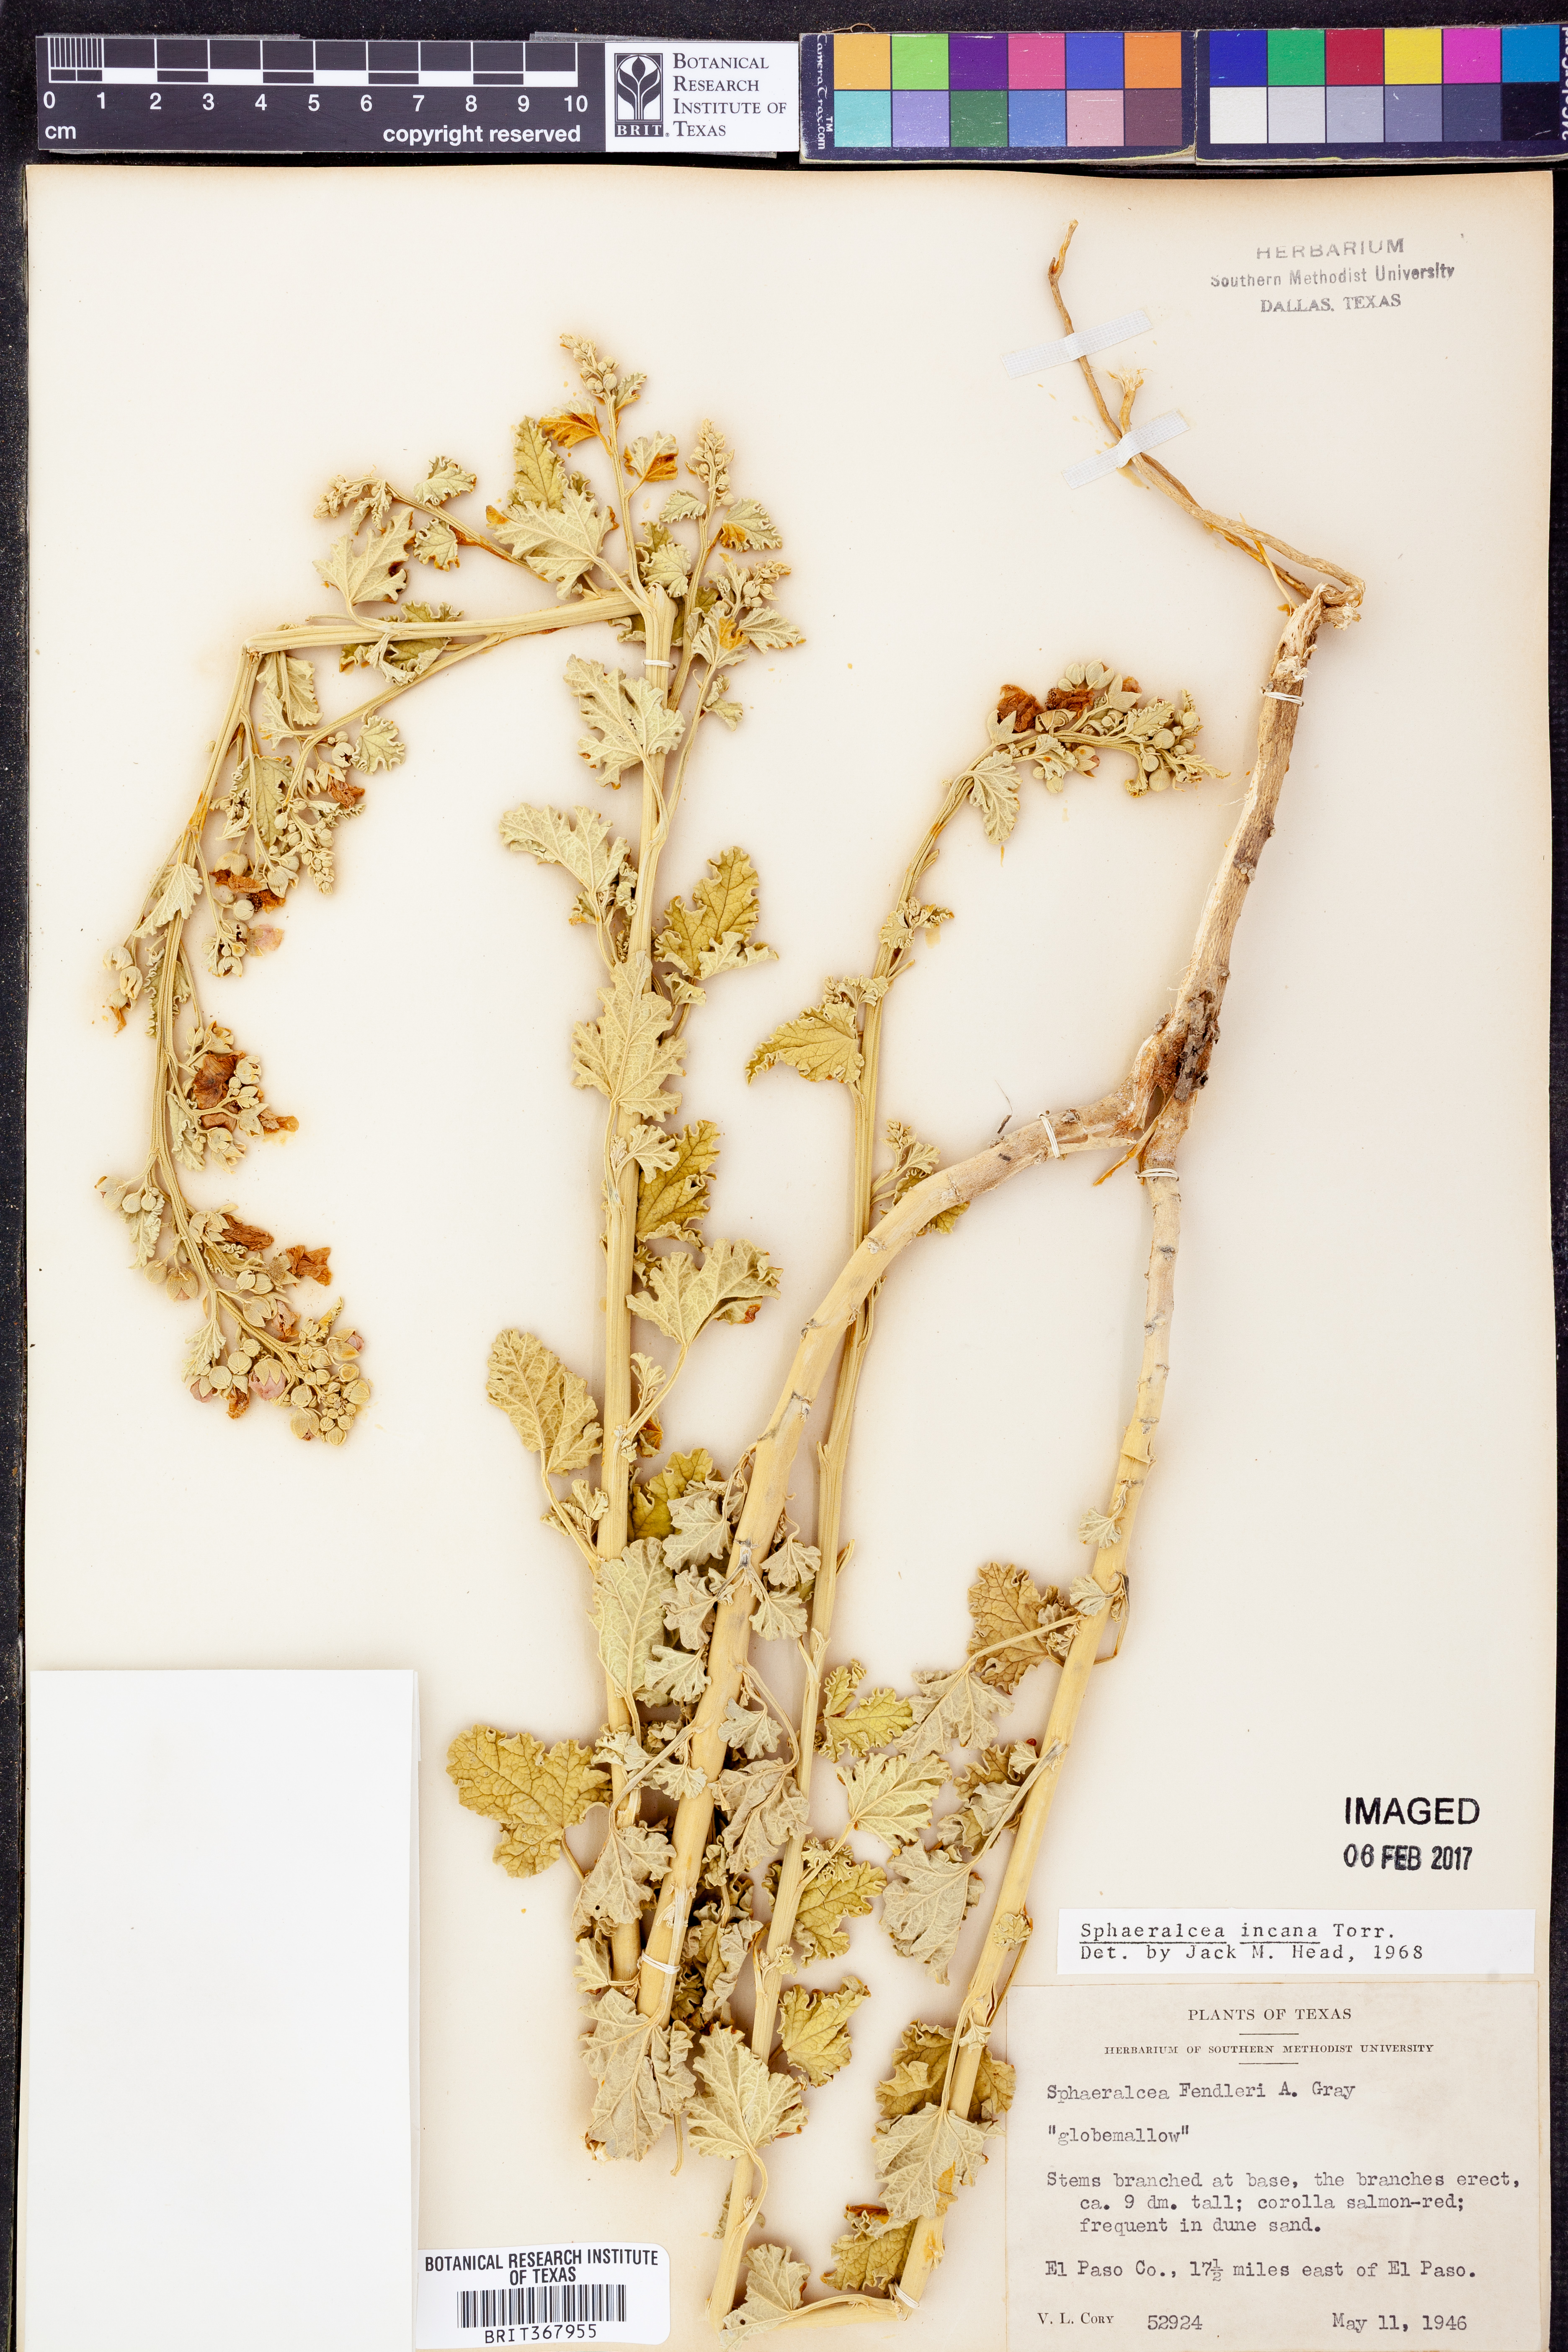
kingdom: Plantae
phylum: Tracheophyta
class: Magnoliopsida
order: Malvales
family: Malvaceae
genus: Sphaeralcea
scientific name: Sphaeralcea incana
